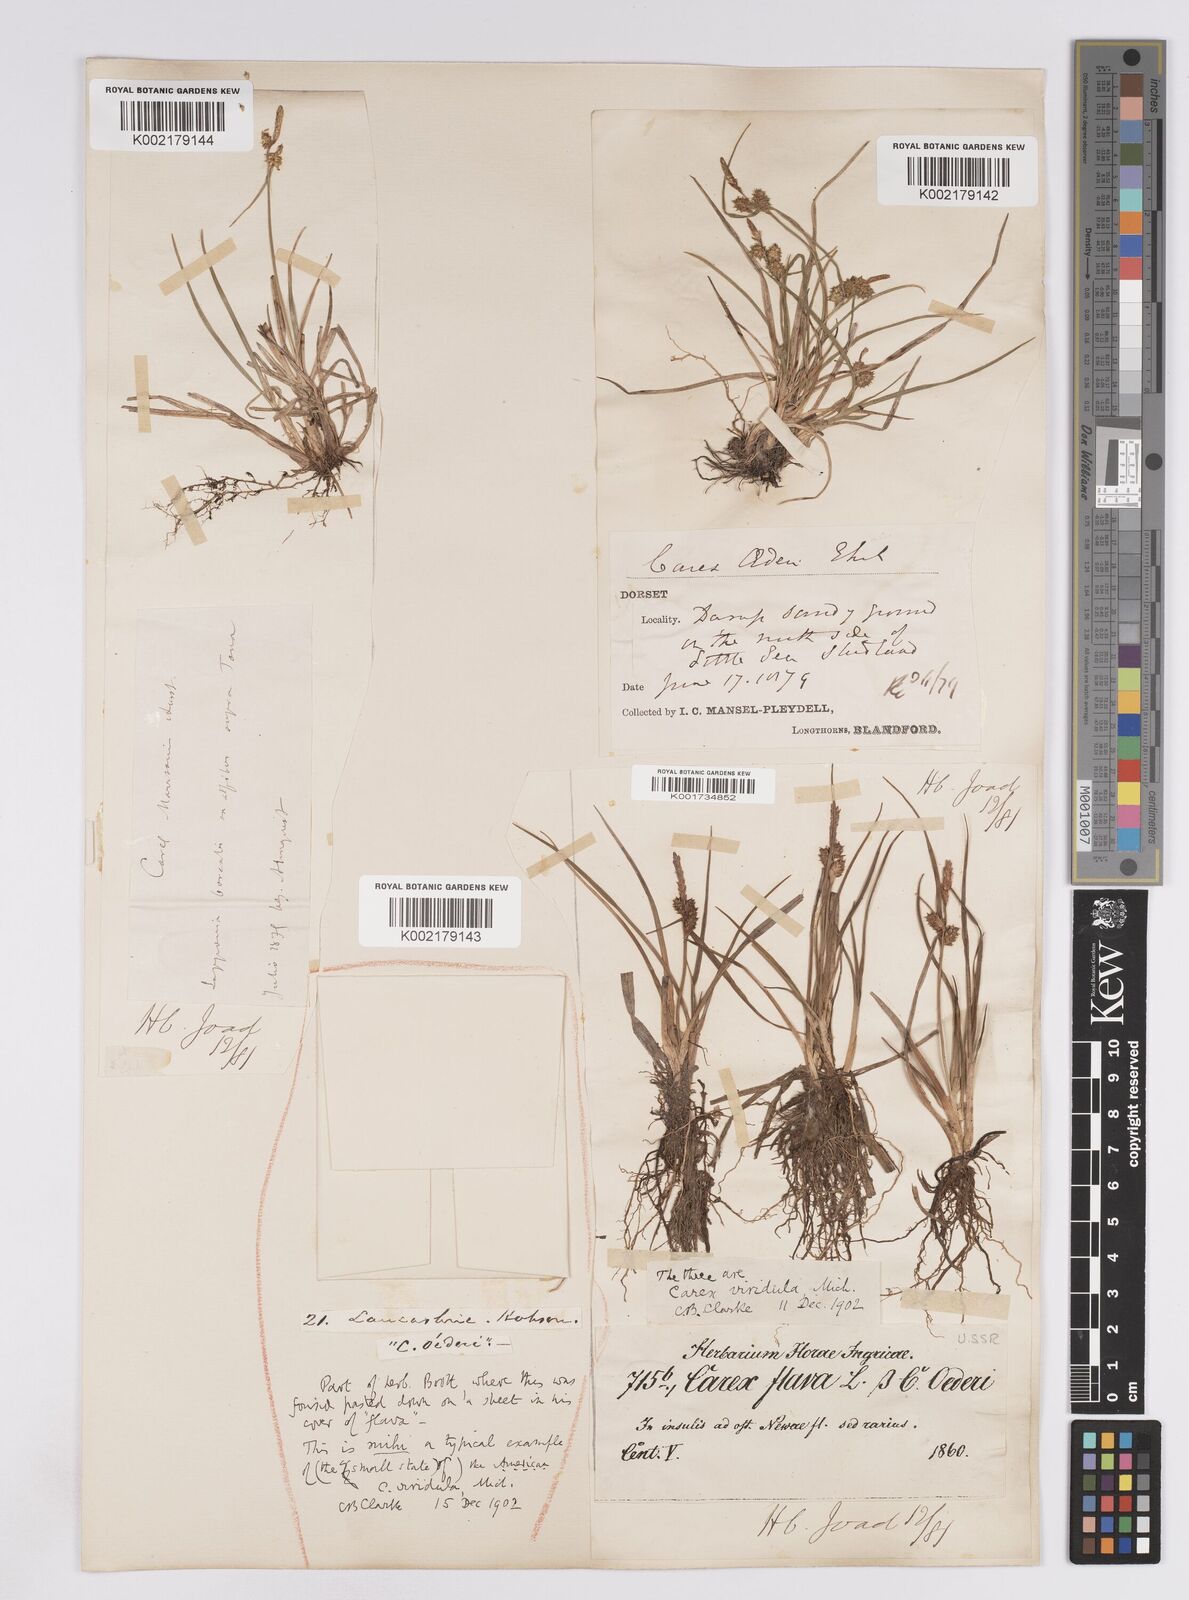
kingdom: Plantae
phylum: Tracheophyta
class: Liliopsida
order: Poales
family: Cyperaceae
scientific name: Cyperaceae
